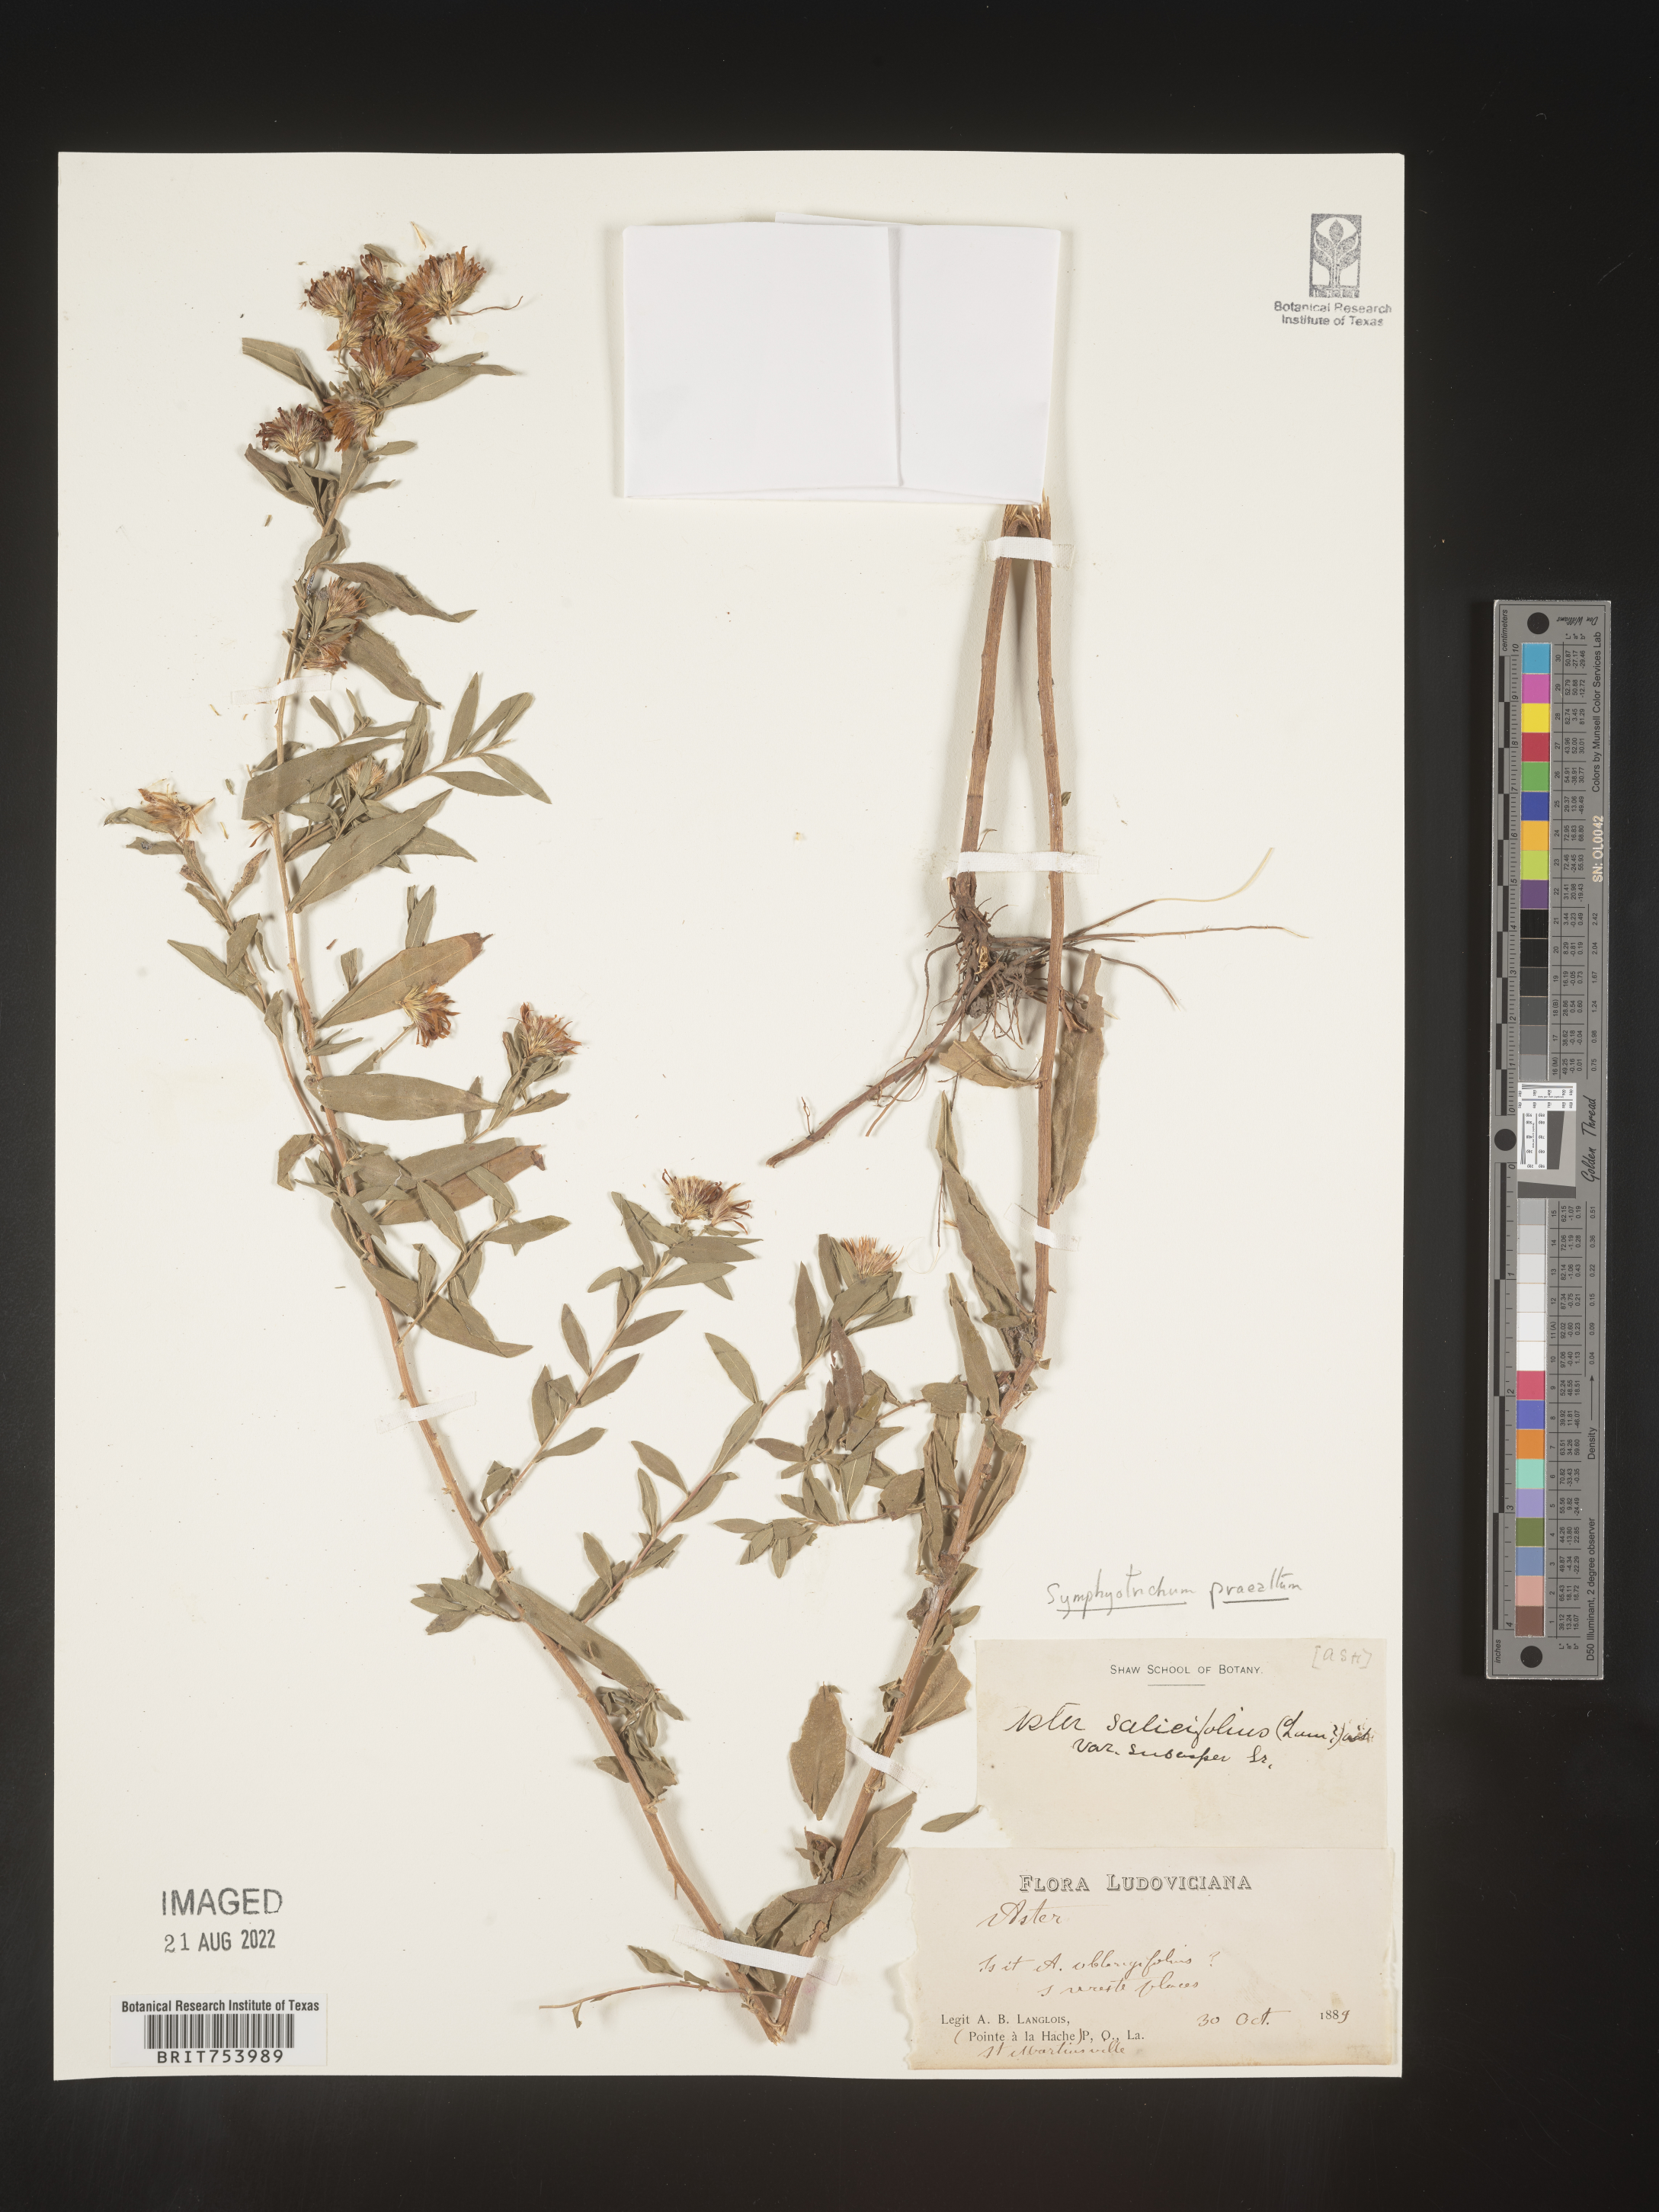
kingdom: Plantae
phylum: Tracheophyta
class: Magnoliopsida
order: Asterales
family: Asteraceae
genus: Symphyotrichum
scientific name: Symphyotrichum praealtum
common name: Willow aster
